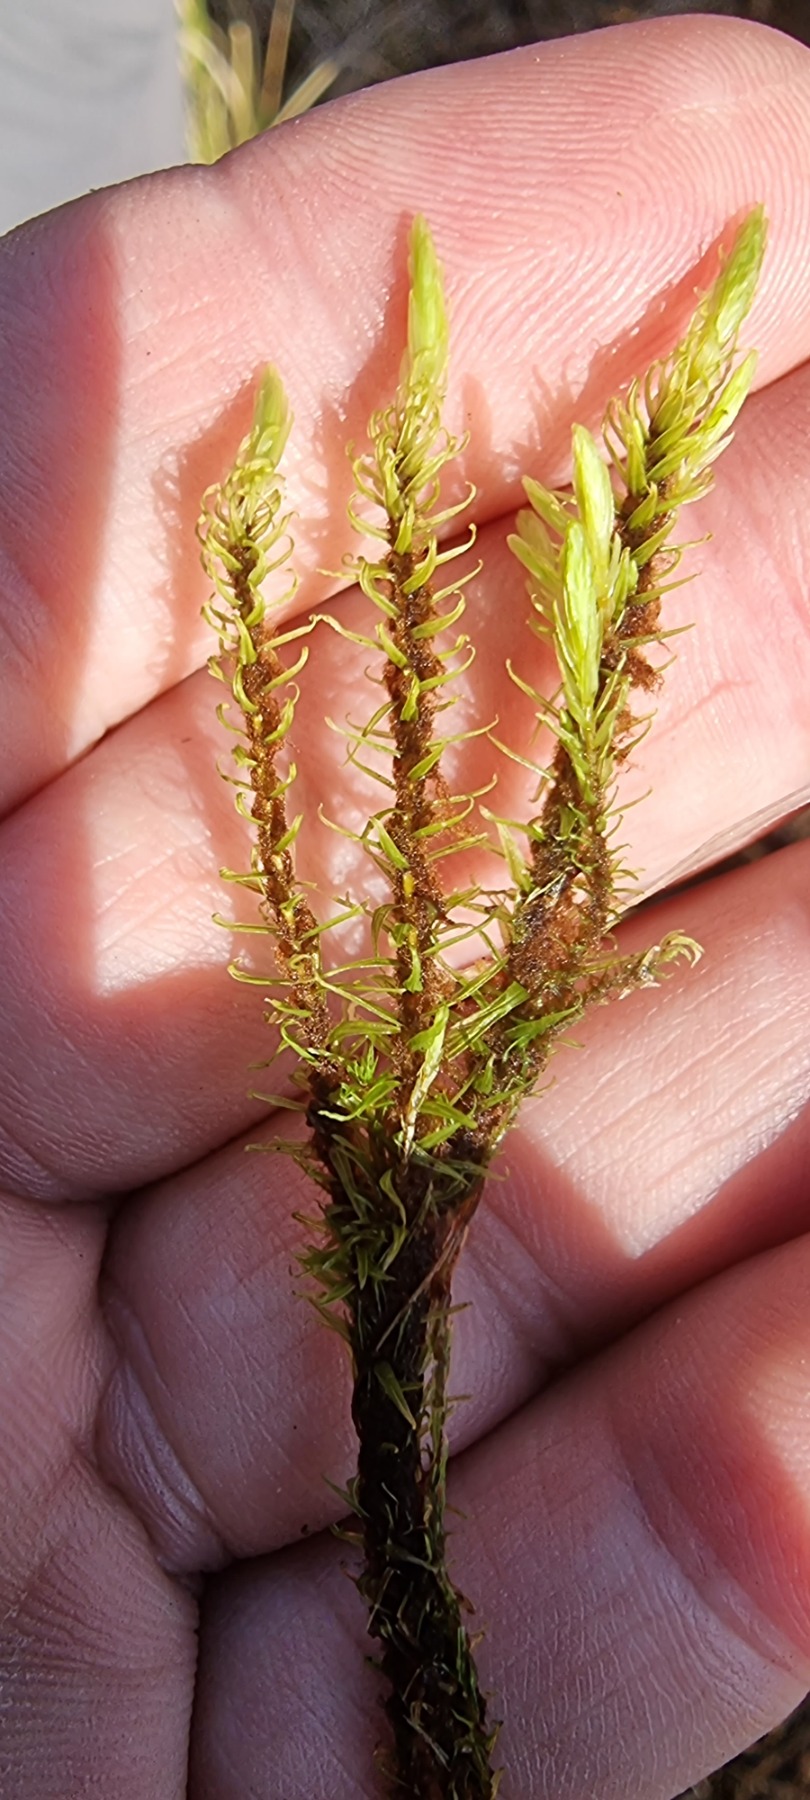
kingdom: Plantae
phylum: Bryophyta
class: Bryopsida
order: Aulacomniales
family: Aulacomniaceae
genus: Aulacomnium
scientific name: Aulacomnium palustre
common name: Almindelig filtmos
